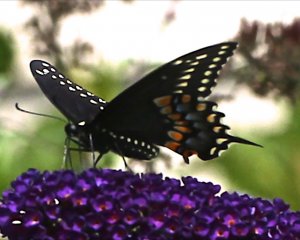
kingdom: Animalia
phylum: Arthropoda
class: Insecta
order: Lepidoptera
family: Papilionidae
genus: Papilio
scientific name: Papilio polyxenes
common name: Black Swallowtail
